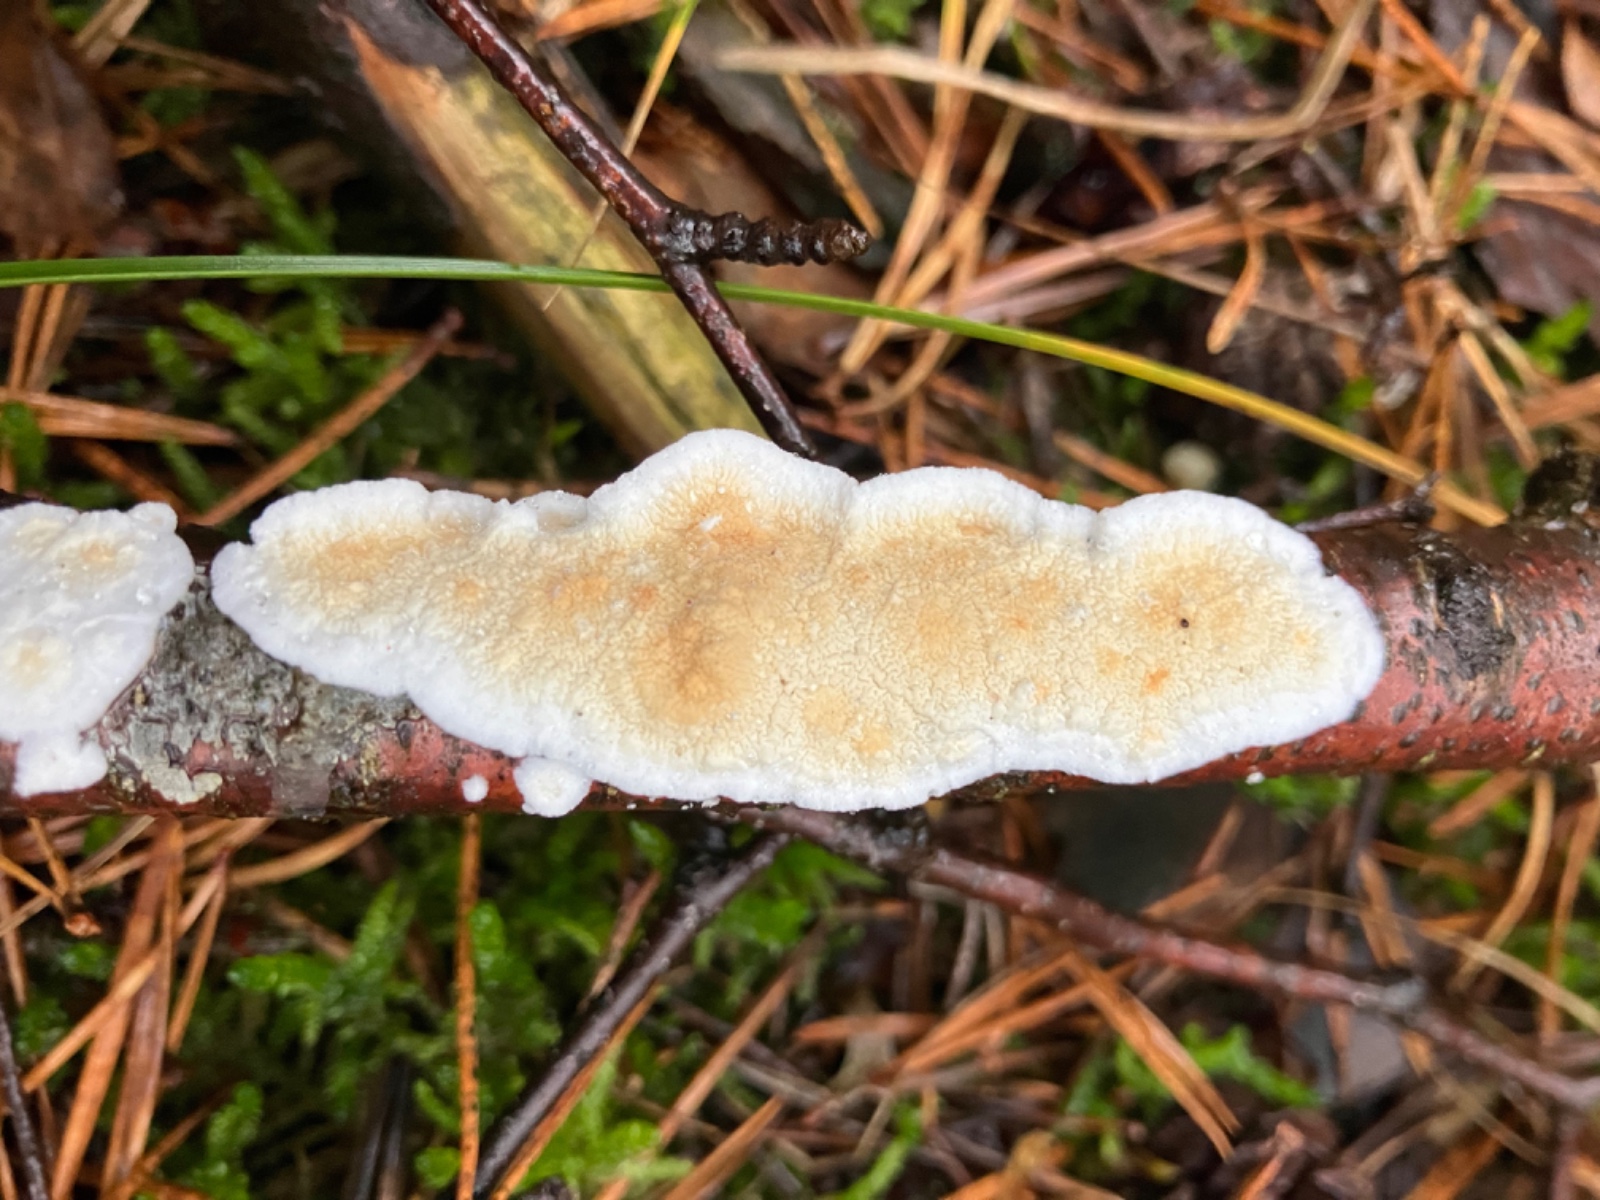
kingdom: Fungi
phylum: Basidiomycota
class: Agaricomycetes
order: Polyporales
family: Irpicaceae
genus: Byssomerulius
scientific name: Byssomerulius corium
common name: læder-åresvamp
